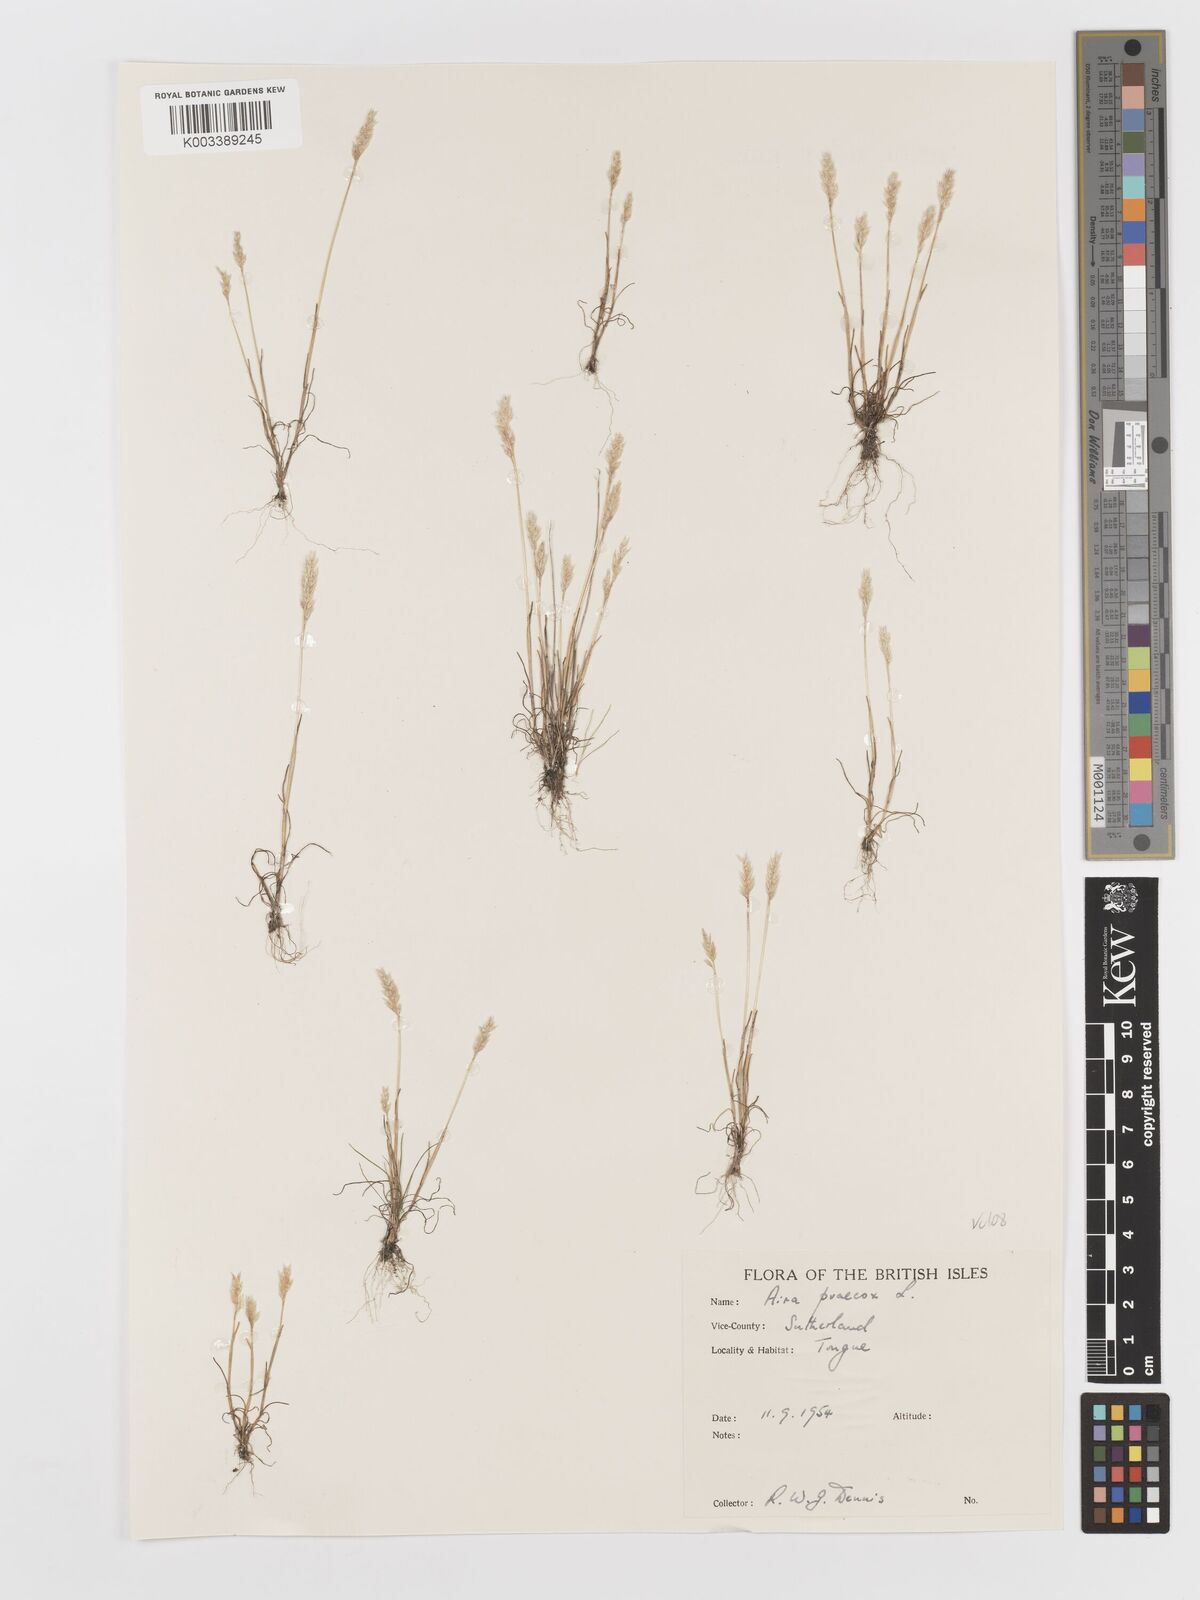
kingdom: Plantae
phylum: Tracheophyta
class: Liliopsida
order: Poales
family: Poaceae
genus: Aira
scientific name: Aira praecox
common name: Early hair-grass
